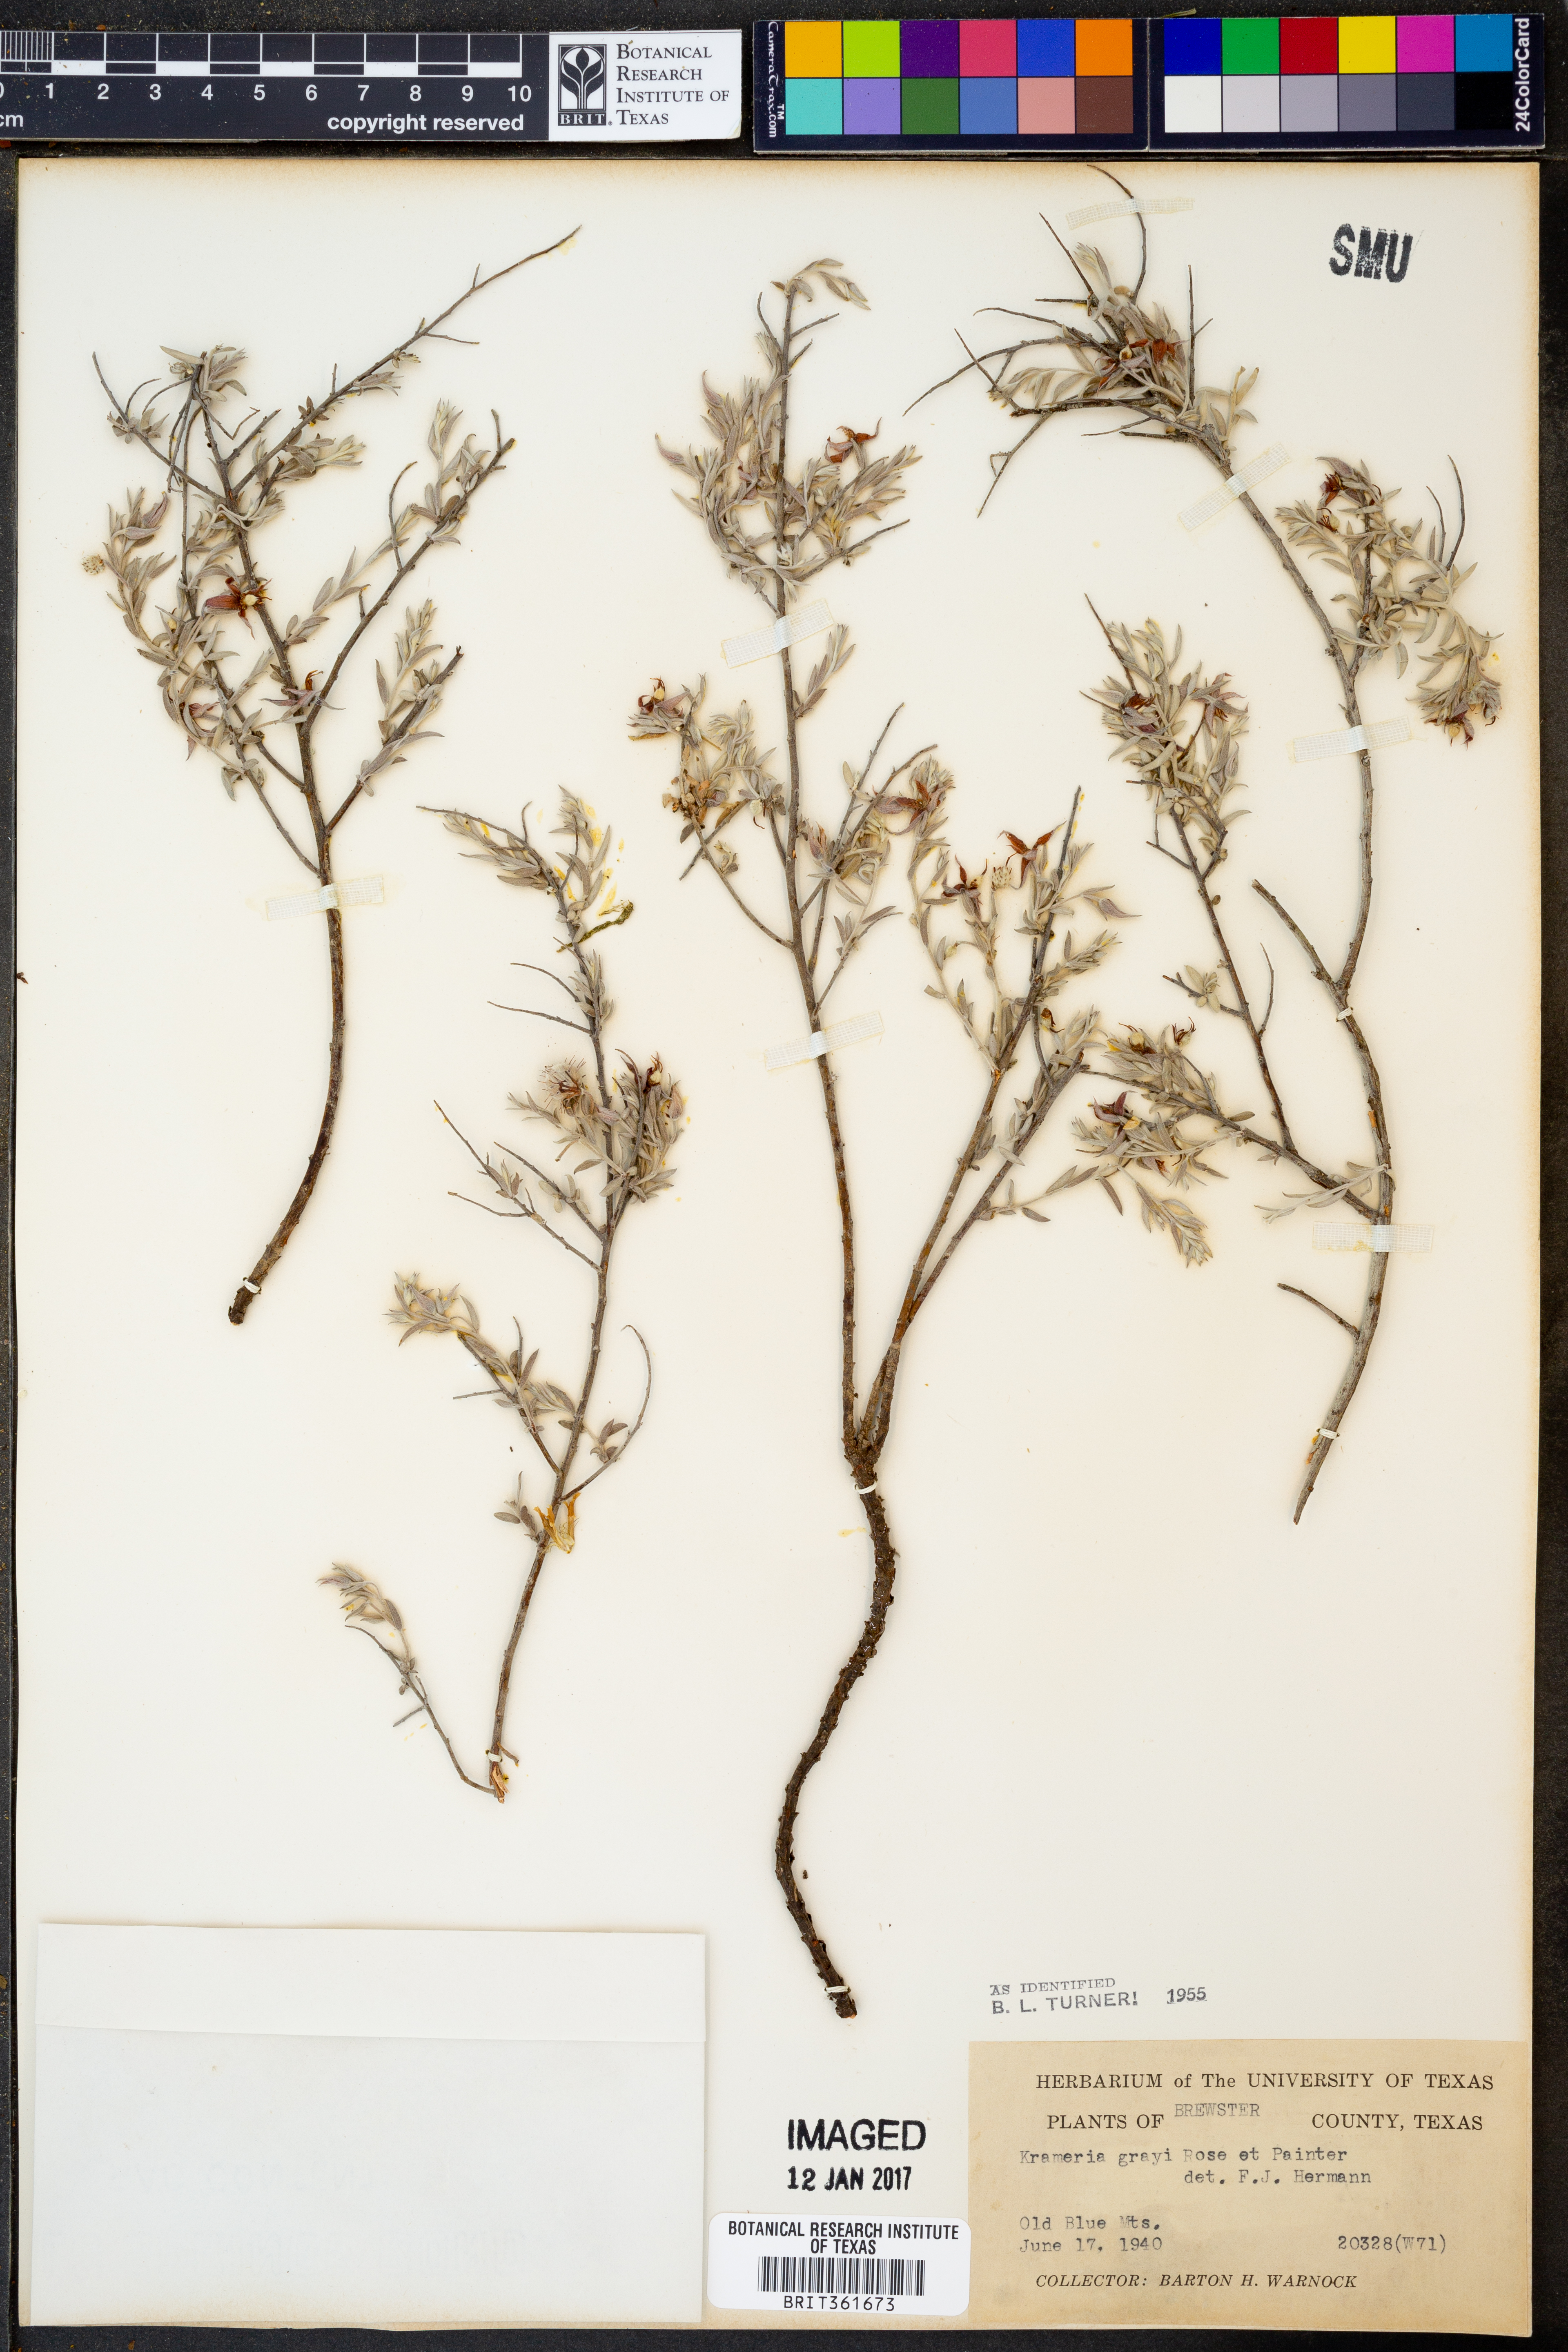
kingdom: Plantae
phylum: Tracheophyta
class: Magnoliopsida
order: Zygophyllales
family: Krameriaceae
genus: Krameria
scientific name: Krameria bicolor
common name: White ratany
